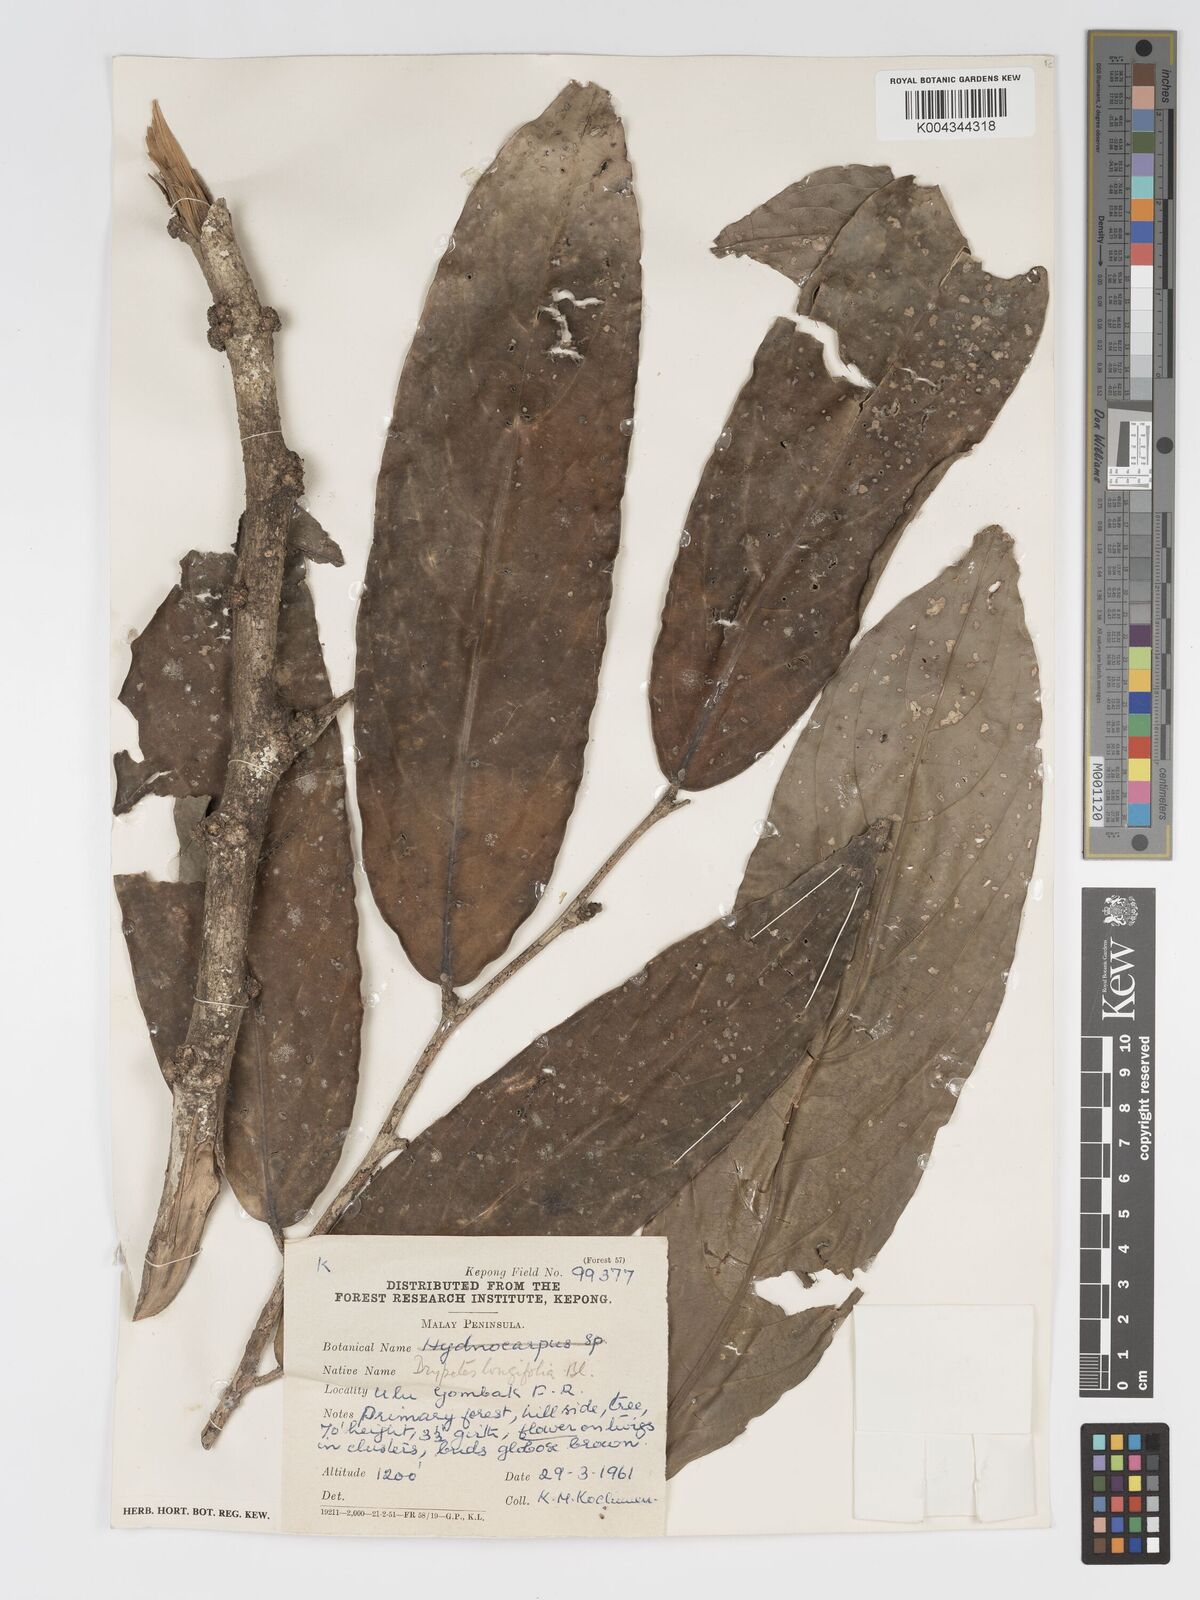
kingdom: Plantae
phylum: Tracheophyta
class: Magnoliopsida
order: Malpighiales
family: Putranjivaceae
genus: Drypetes
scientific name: Drypetes longifolia
